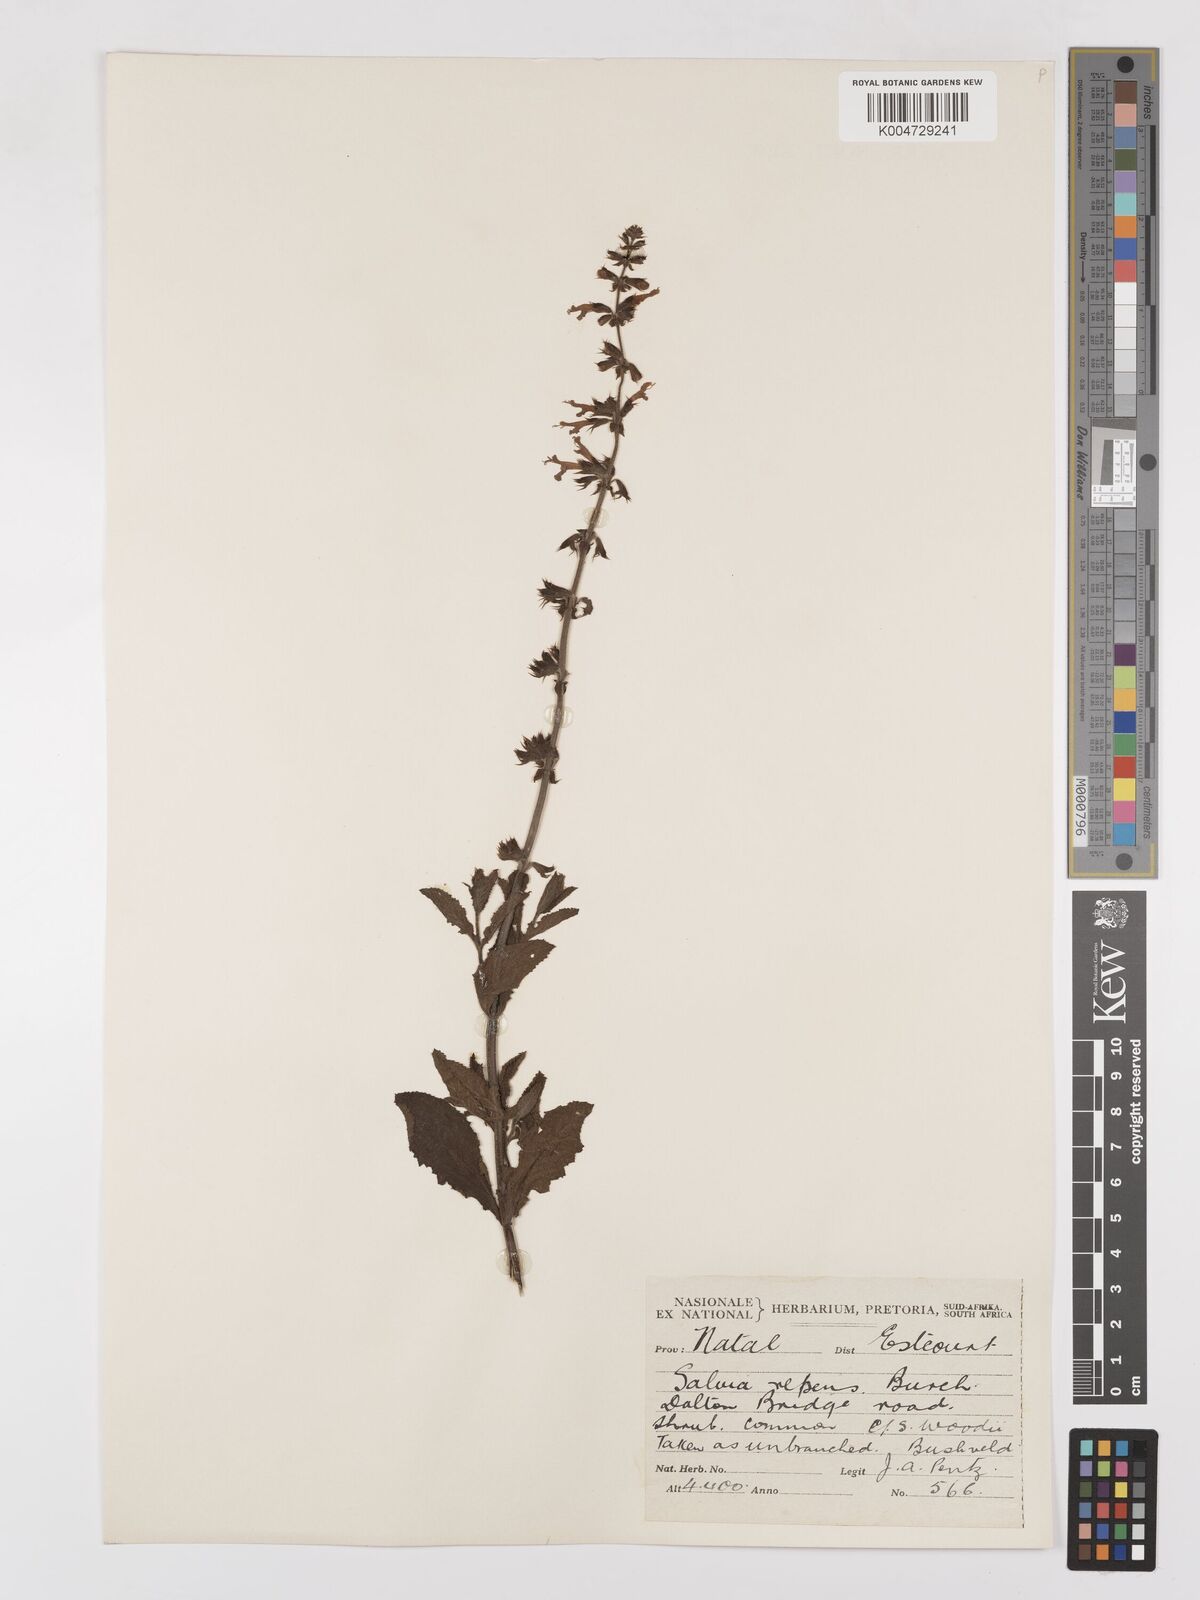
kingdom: Plantae
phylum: Tracheophyta
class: Magnoliopsida
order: Lamiales
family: Lamiaceae
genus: Salvia
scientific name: Salvia repens
